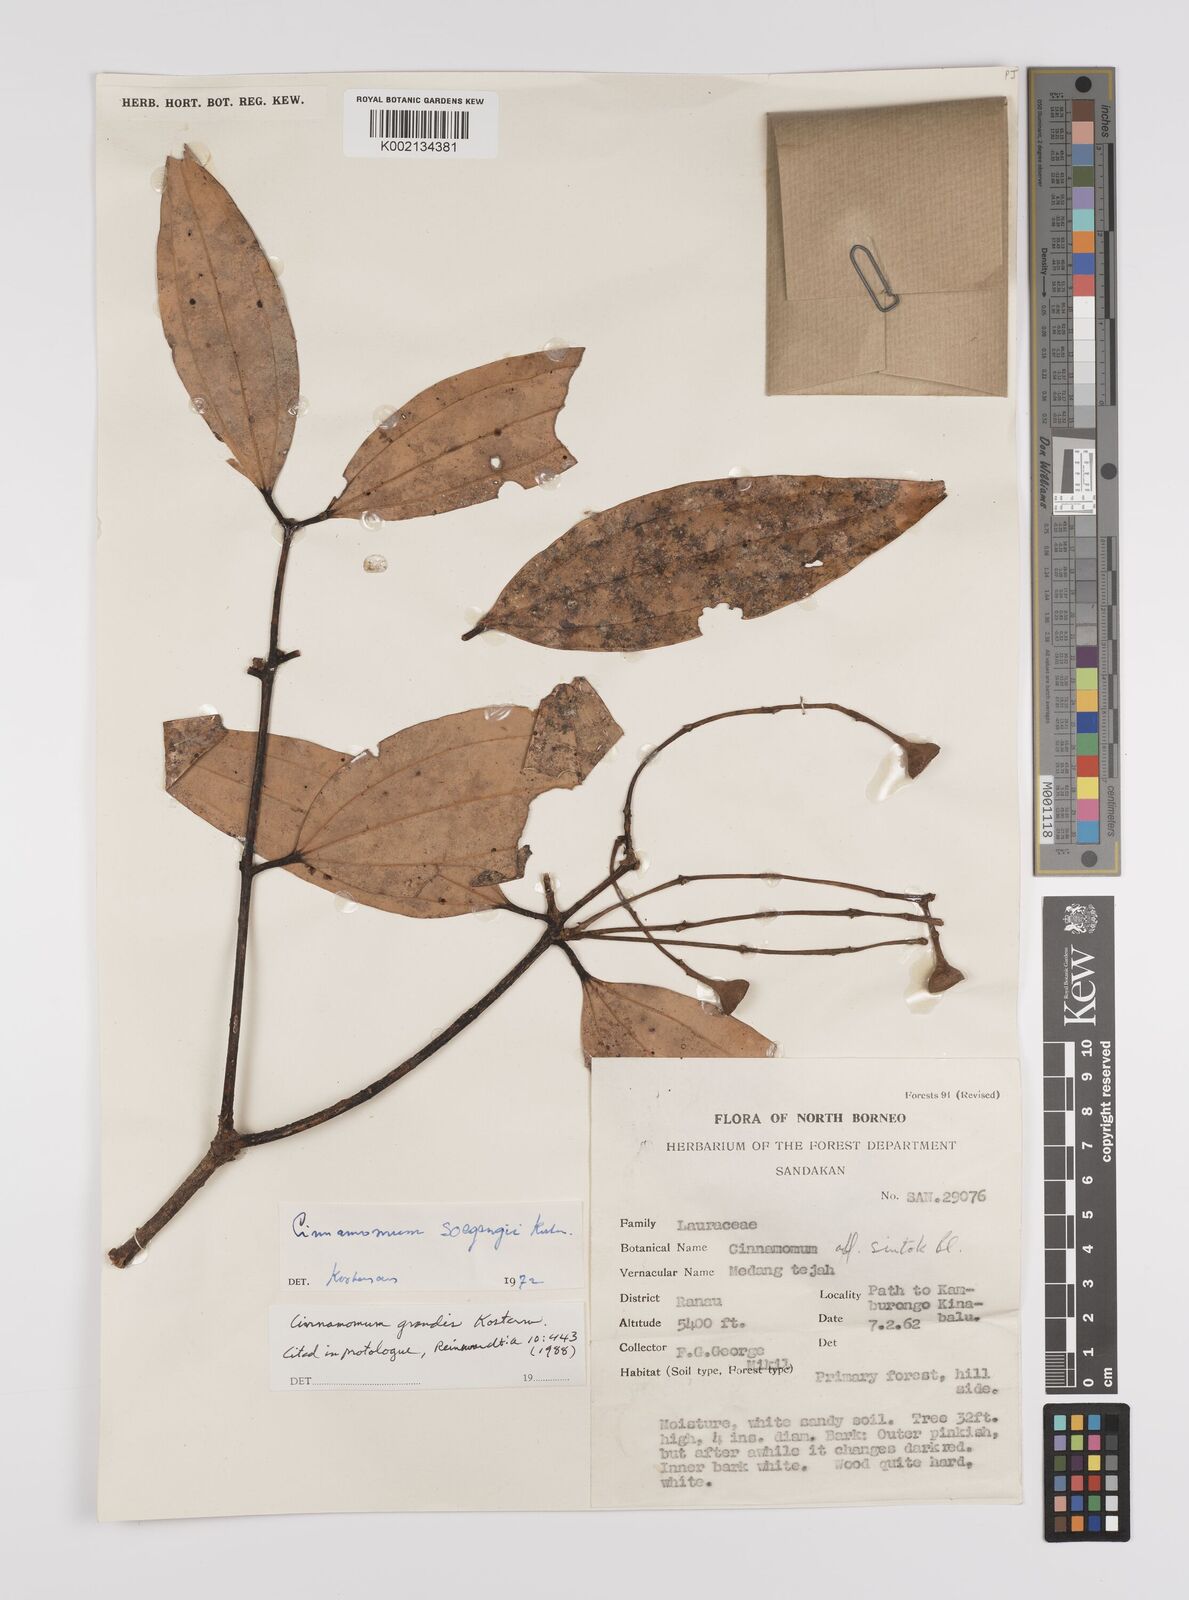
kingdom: Plantae
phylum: Tracheophyta
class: Magnoliopsida
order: Laurales
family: Lauraceae
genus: Cinnamomum
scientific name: Cinnamomum sintoc
